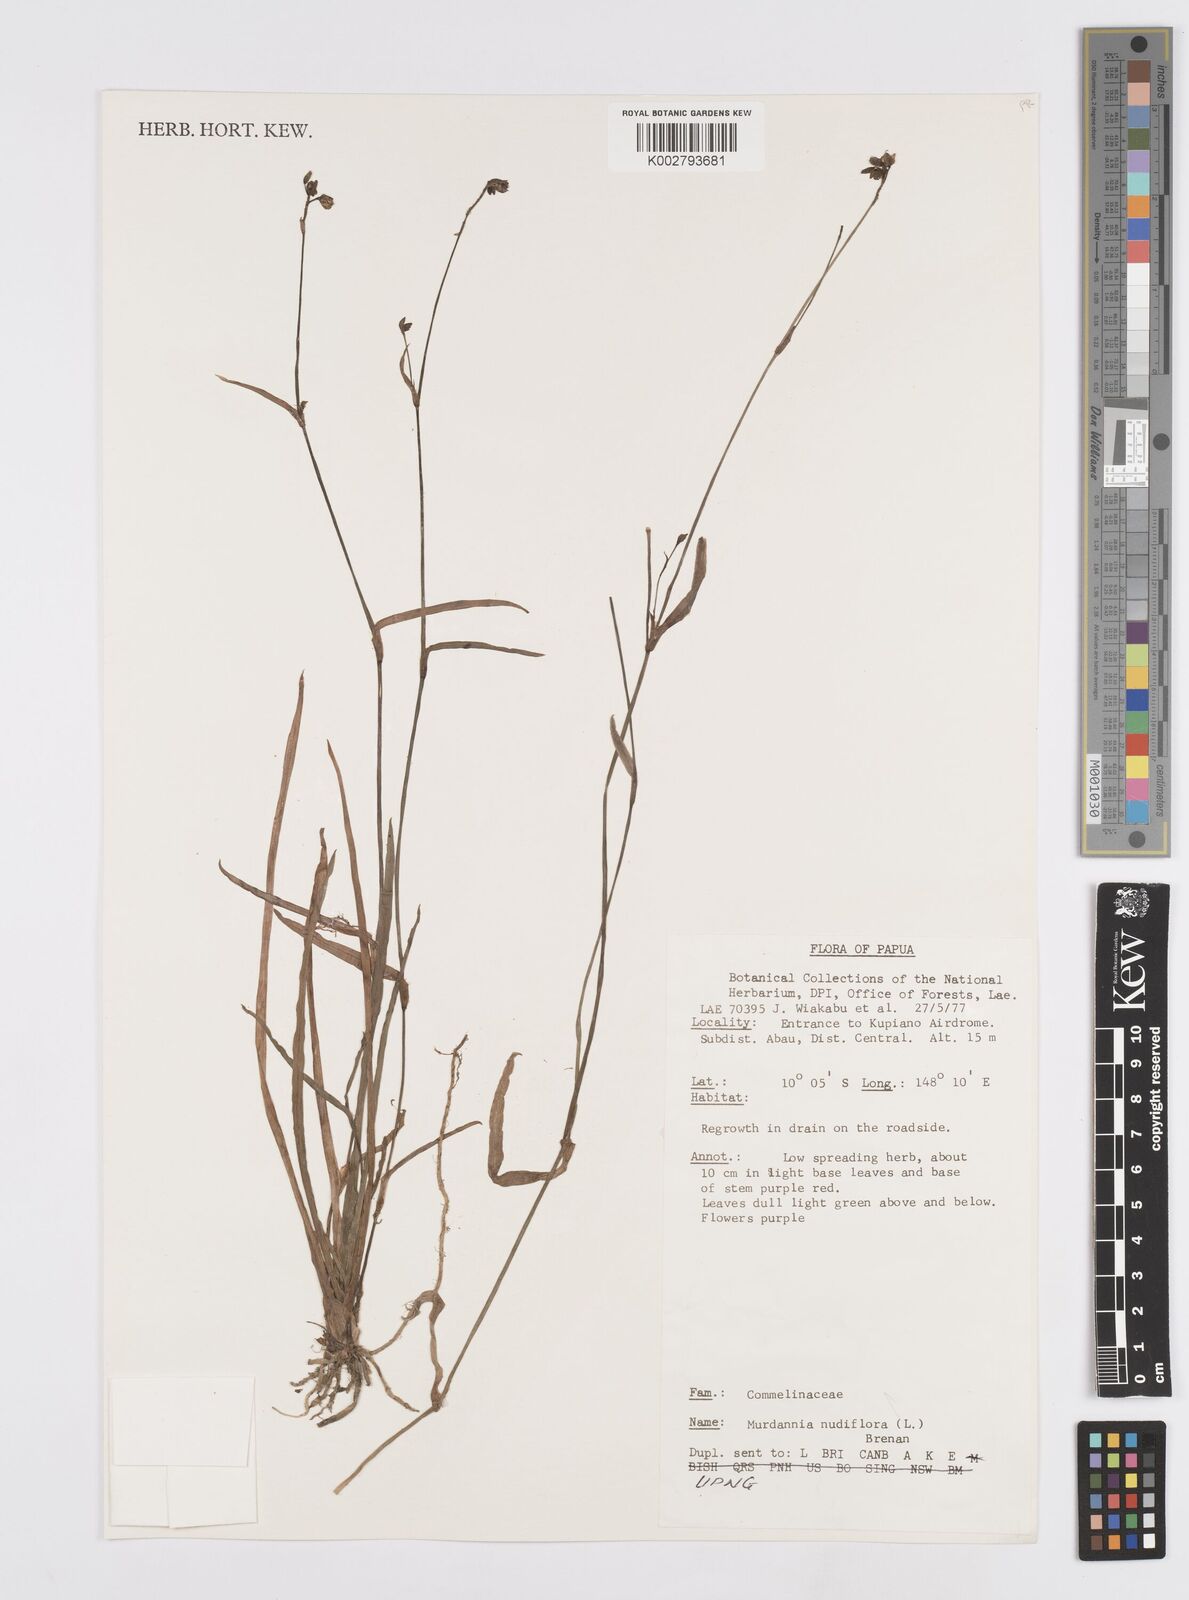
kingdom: Plantae
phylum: Tracheophyta
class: Liliopsida
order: Commelinales
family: Commelinaceae
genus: Murdannia
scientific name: Murdannia nudiflora
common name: Nakedstem dewflower
